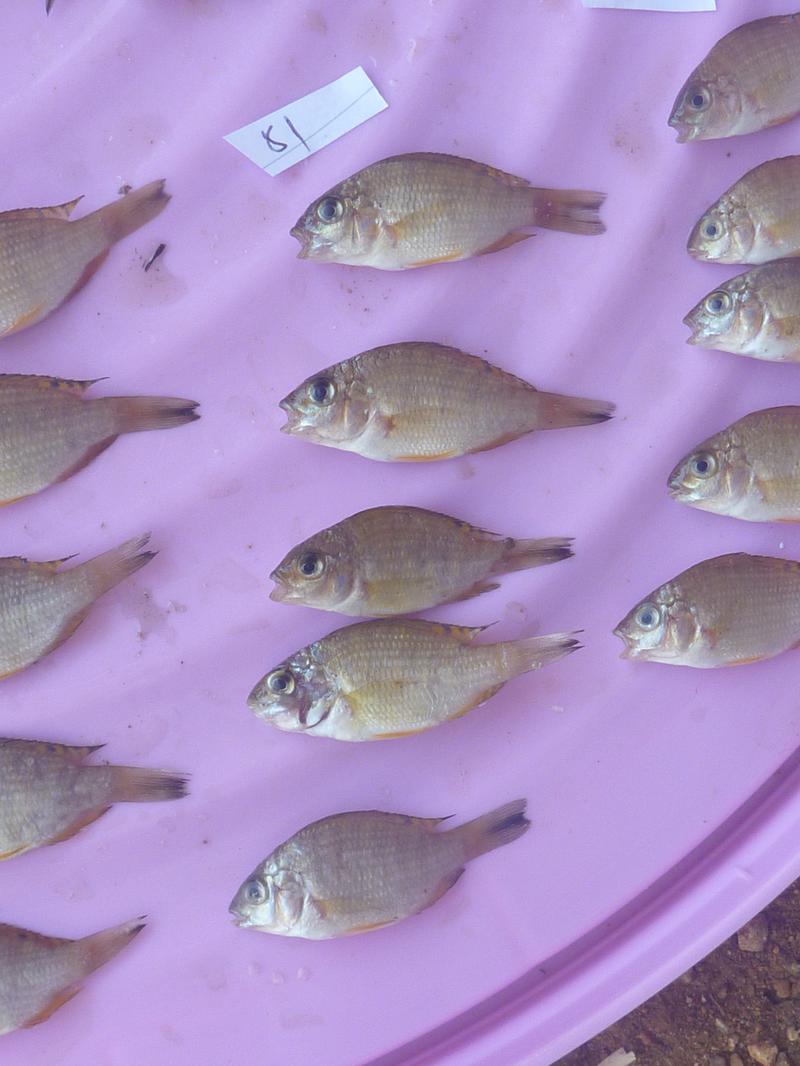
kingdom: Animalia
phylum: Chordata
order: Perciformes
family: Cichlidae
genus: Coptodon
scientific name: Coptodon rendalli
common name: Redbreast tilapia
